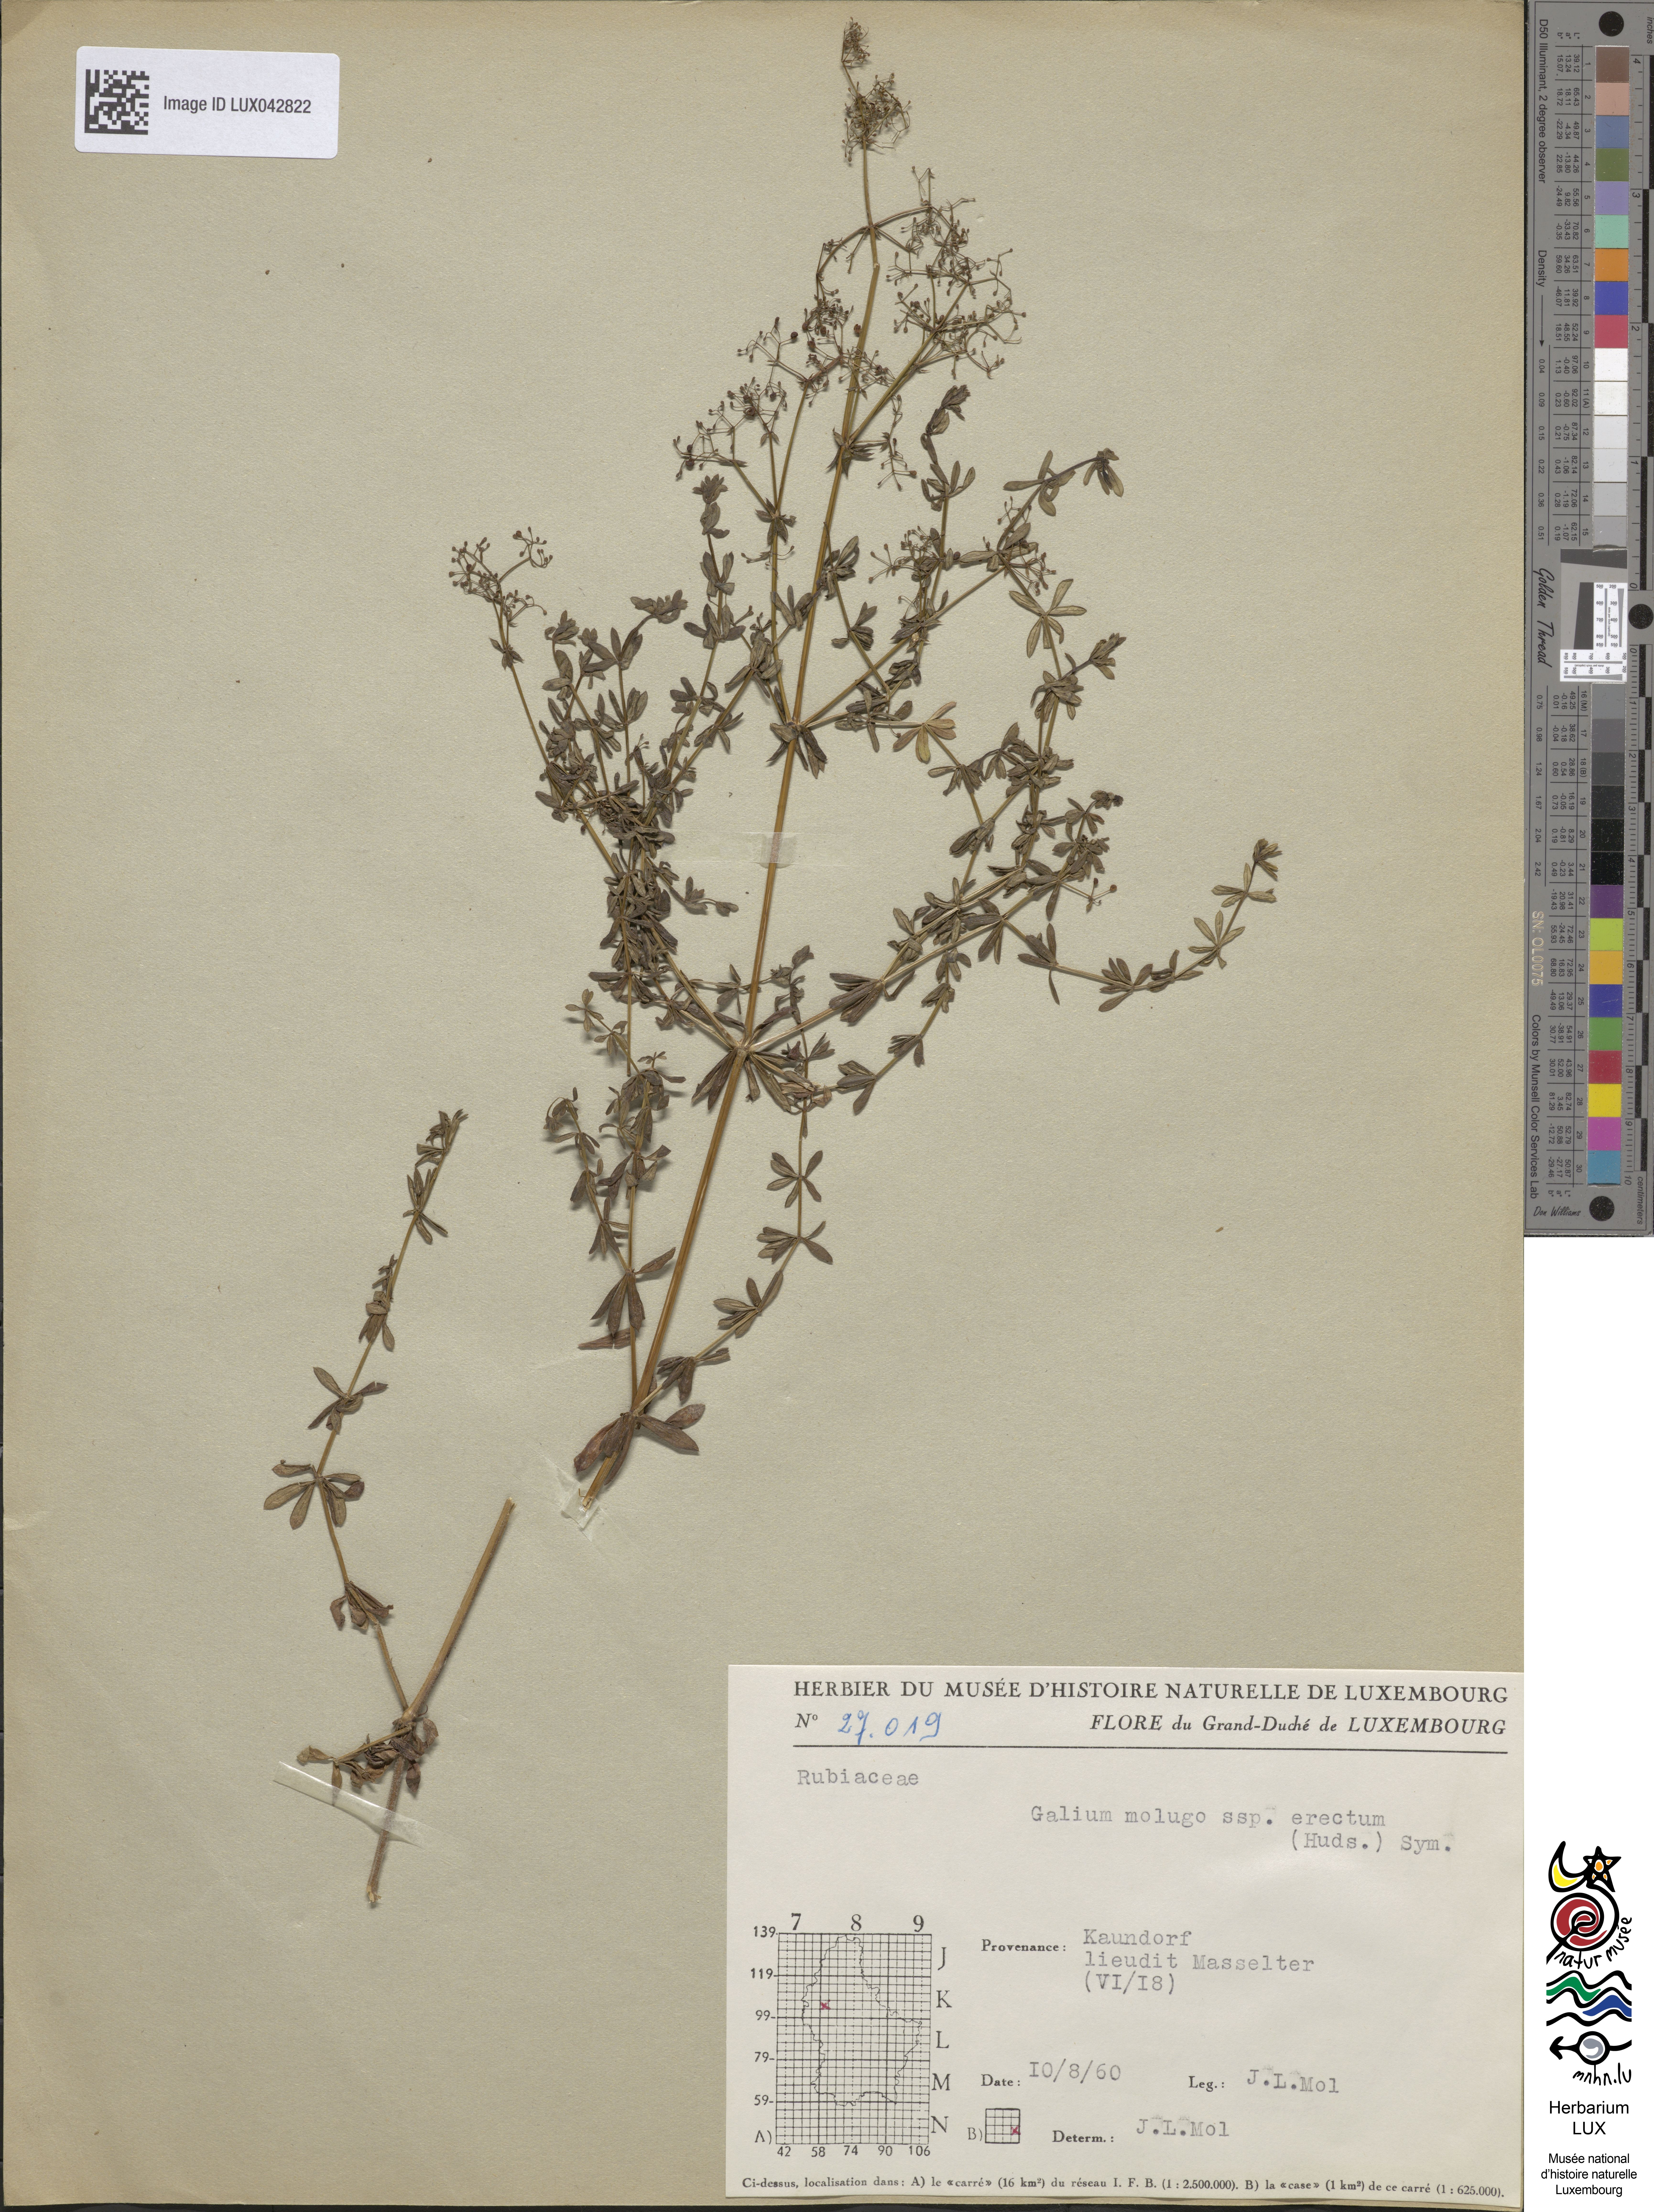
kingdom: Plantae
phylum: Tracheophyta
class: Magnoliopsida
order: Gentianales
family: Rubiaceae
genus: Galium
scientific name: Galium album
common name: White bedstraw
